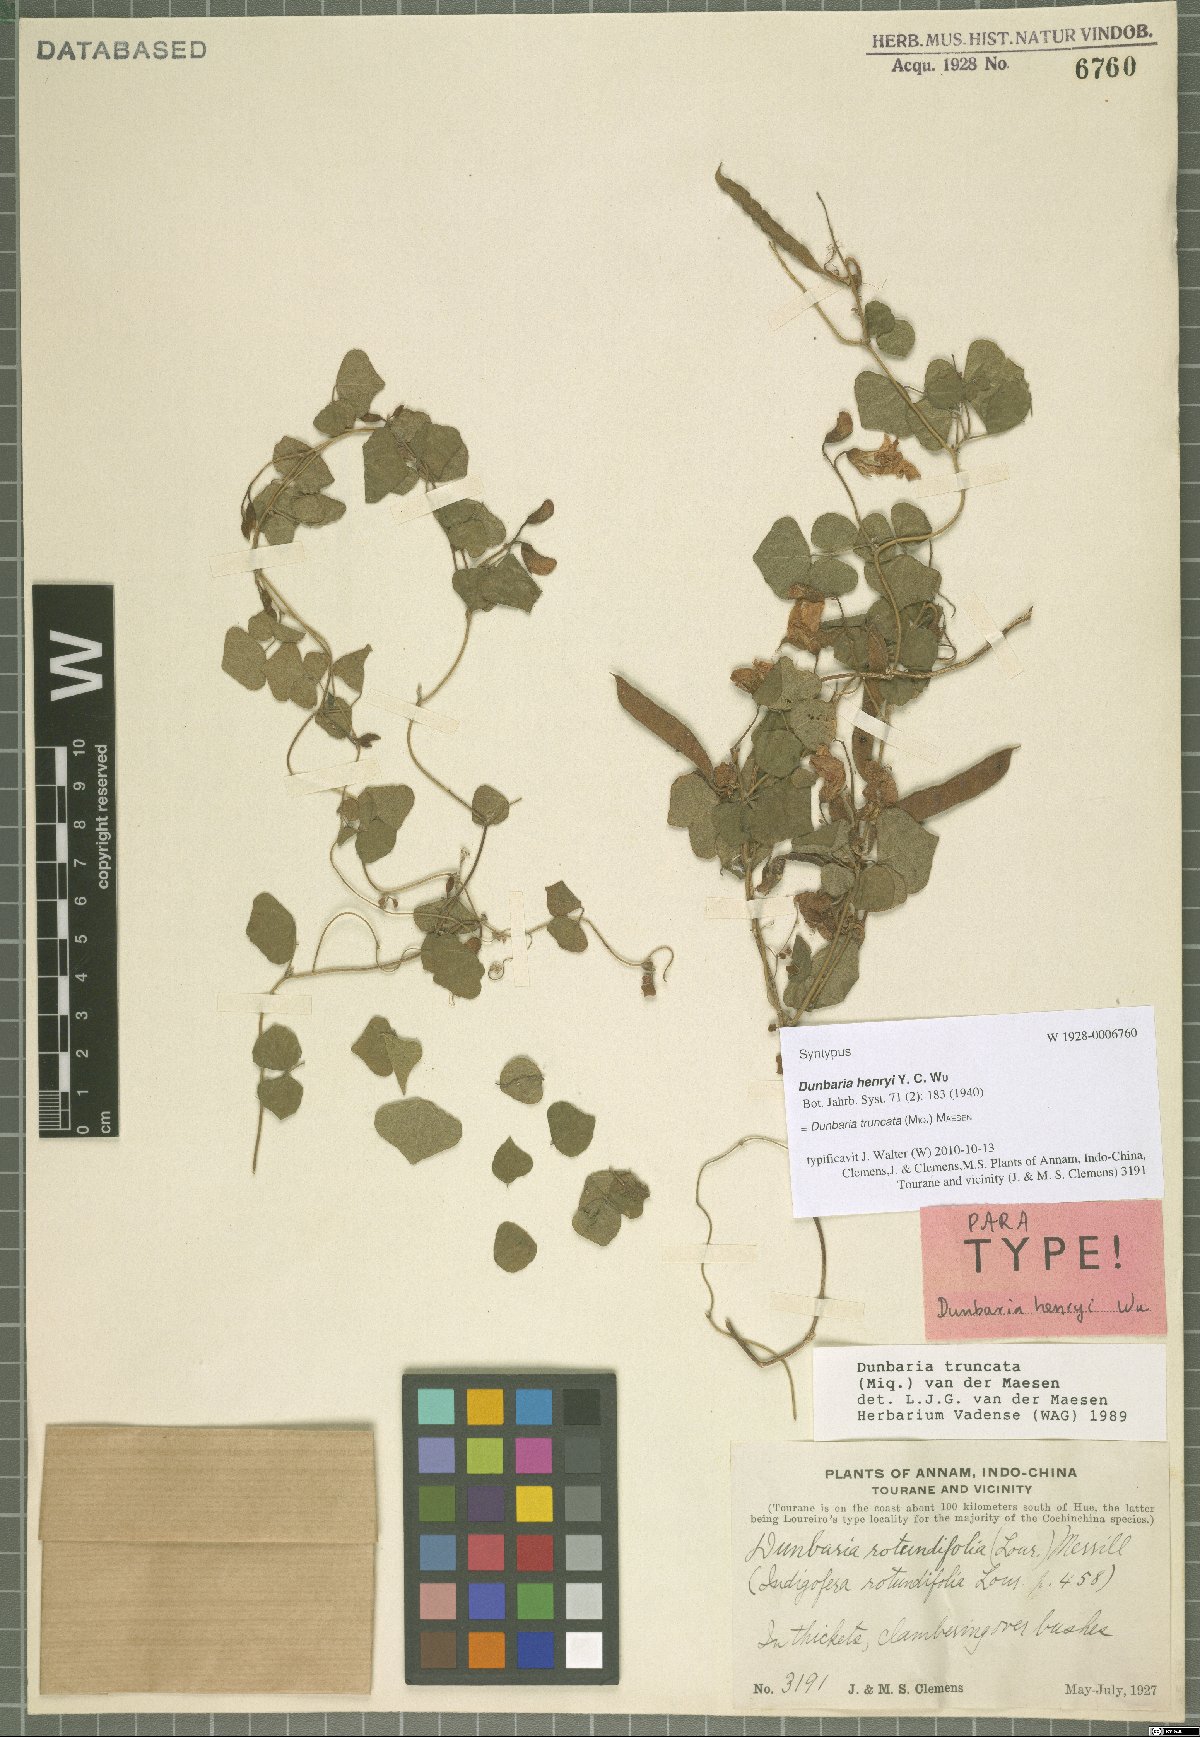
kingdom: Plantae
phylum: Tracheophyta
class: Magnoliopsida
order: Fabales
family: Fabaceae
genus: Dunbaria
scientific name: Dunbaria truncata
